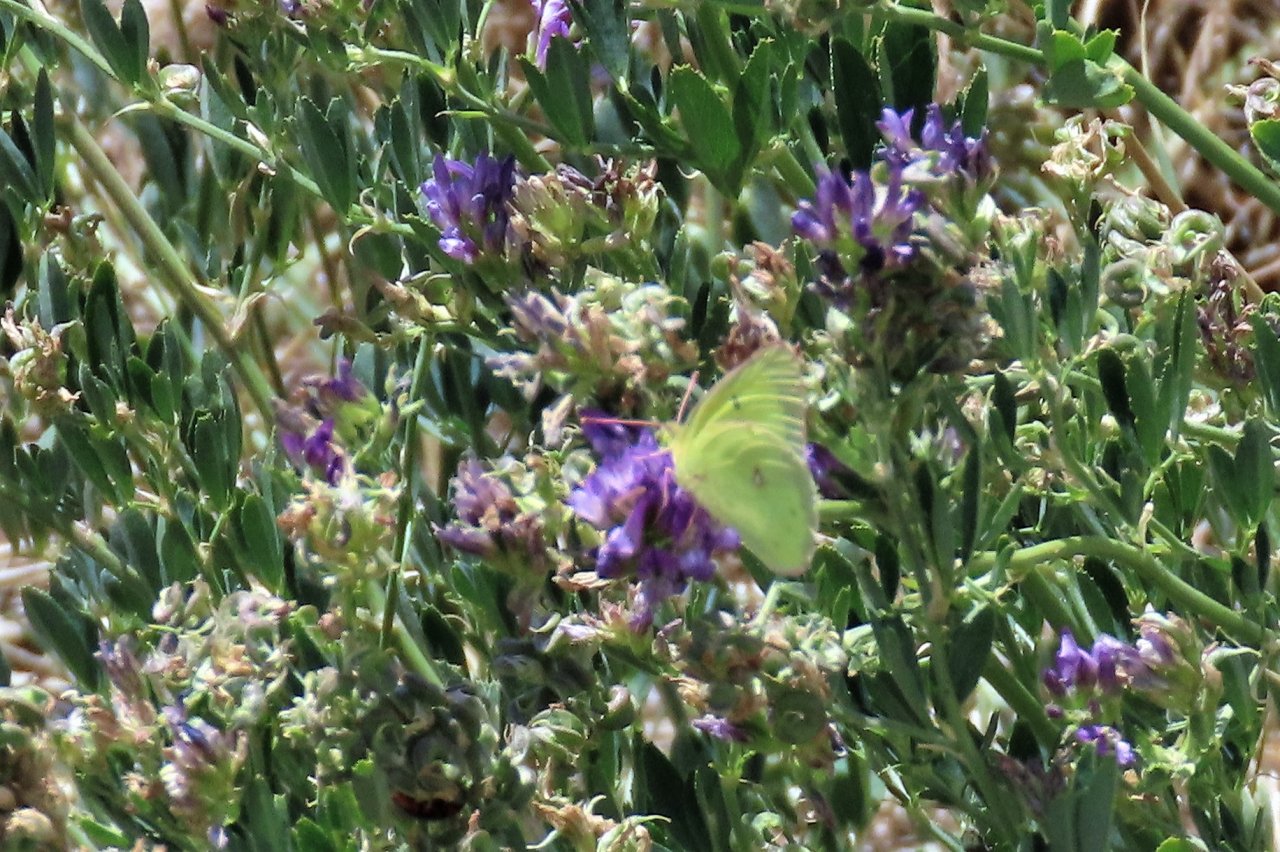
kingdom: Animalia
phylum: Arthropoda
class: Insecta
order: Lepidoptera
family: Pieridae
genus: Colias
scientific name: Colias philodice
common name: Clouded Sulphur
